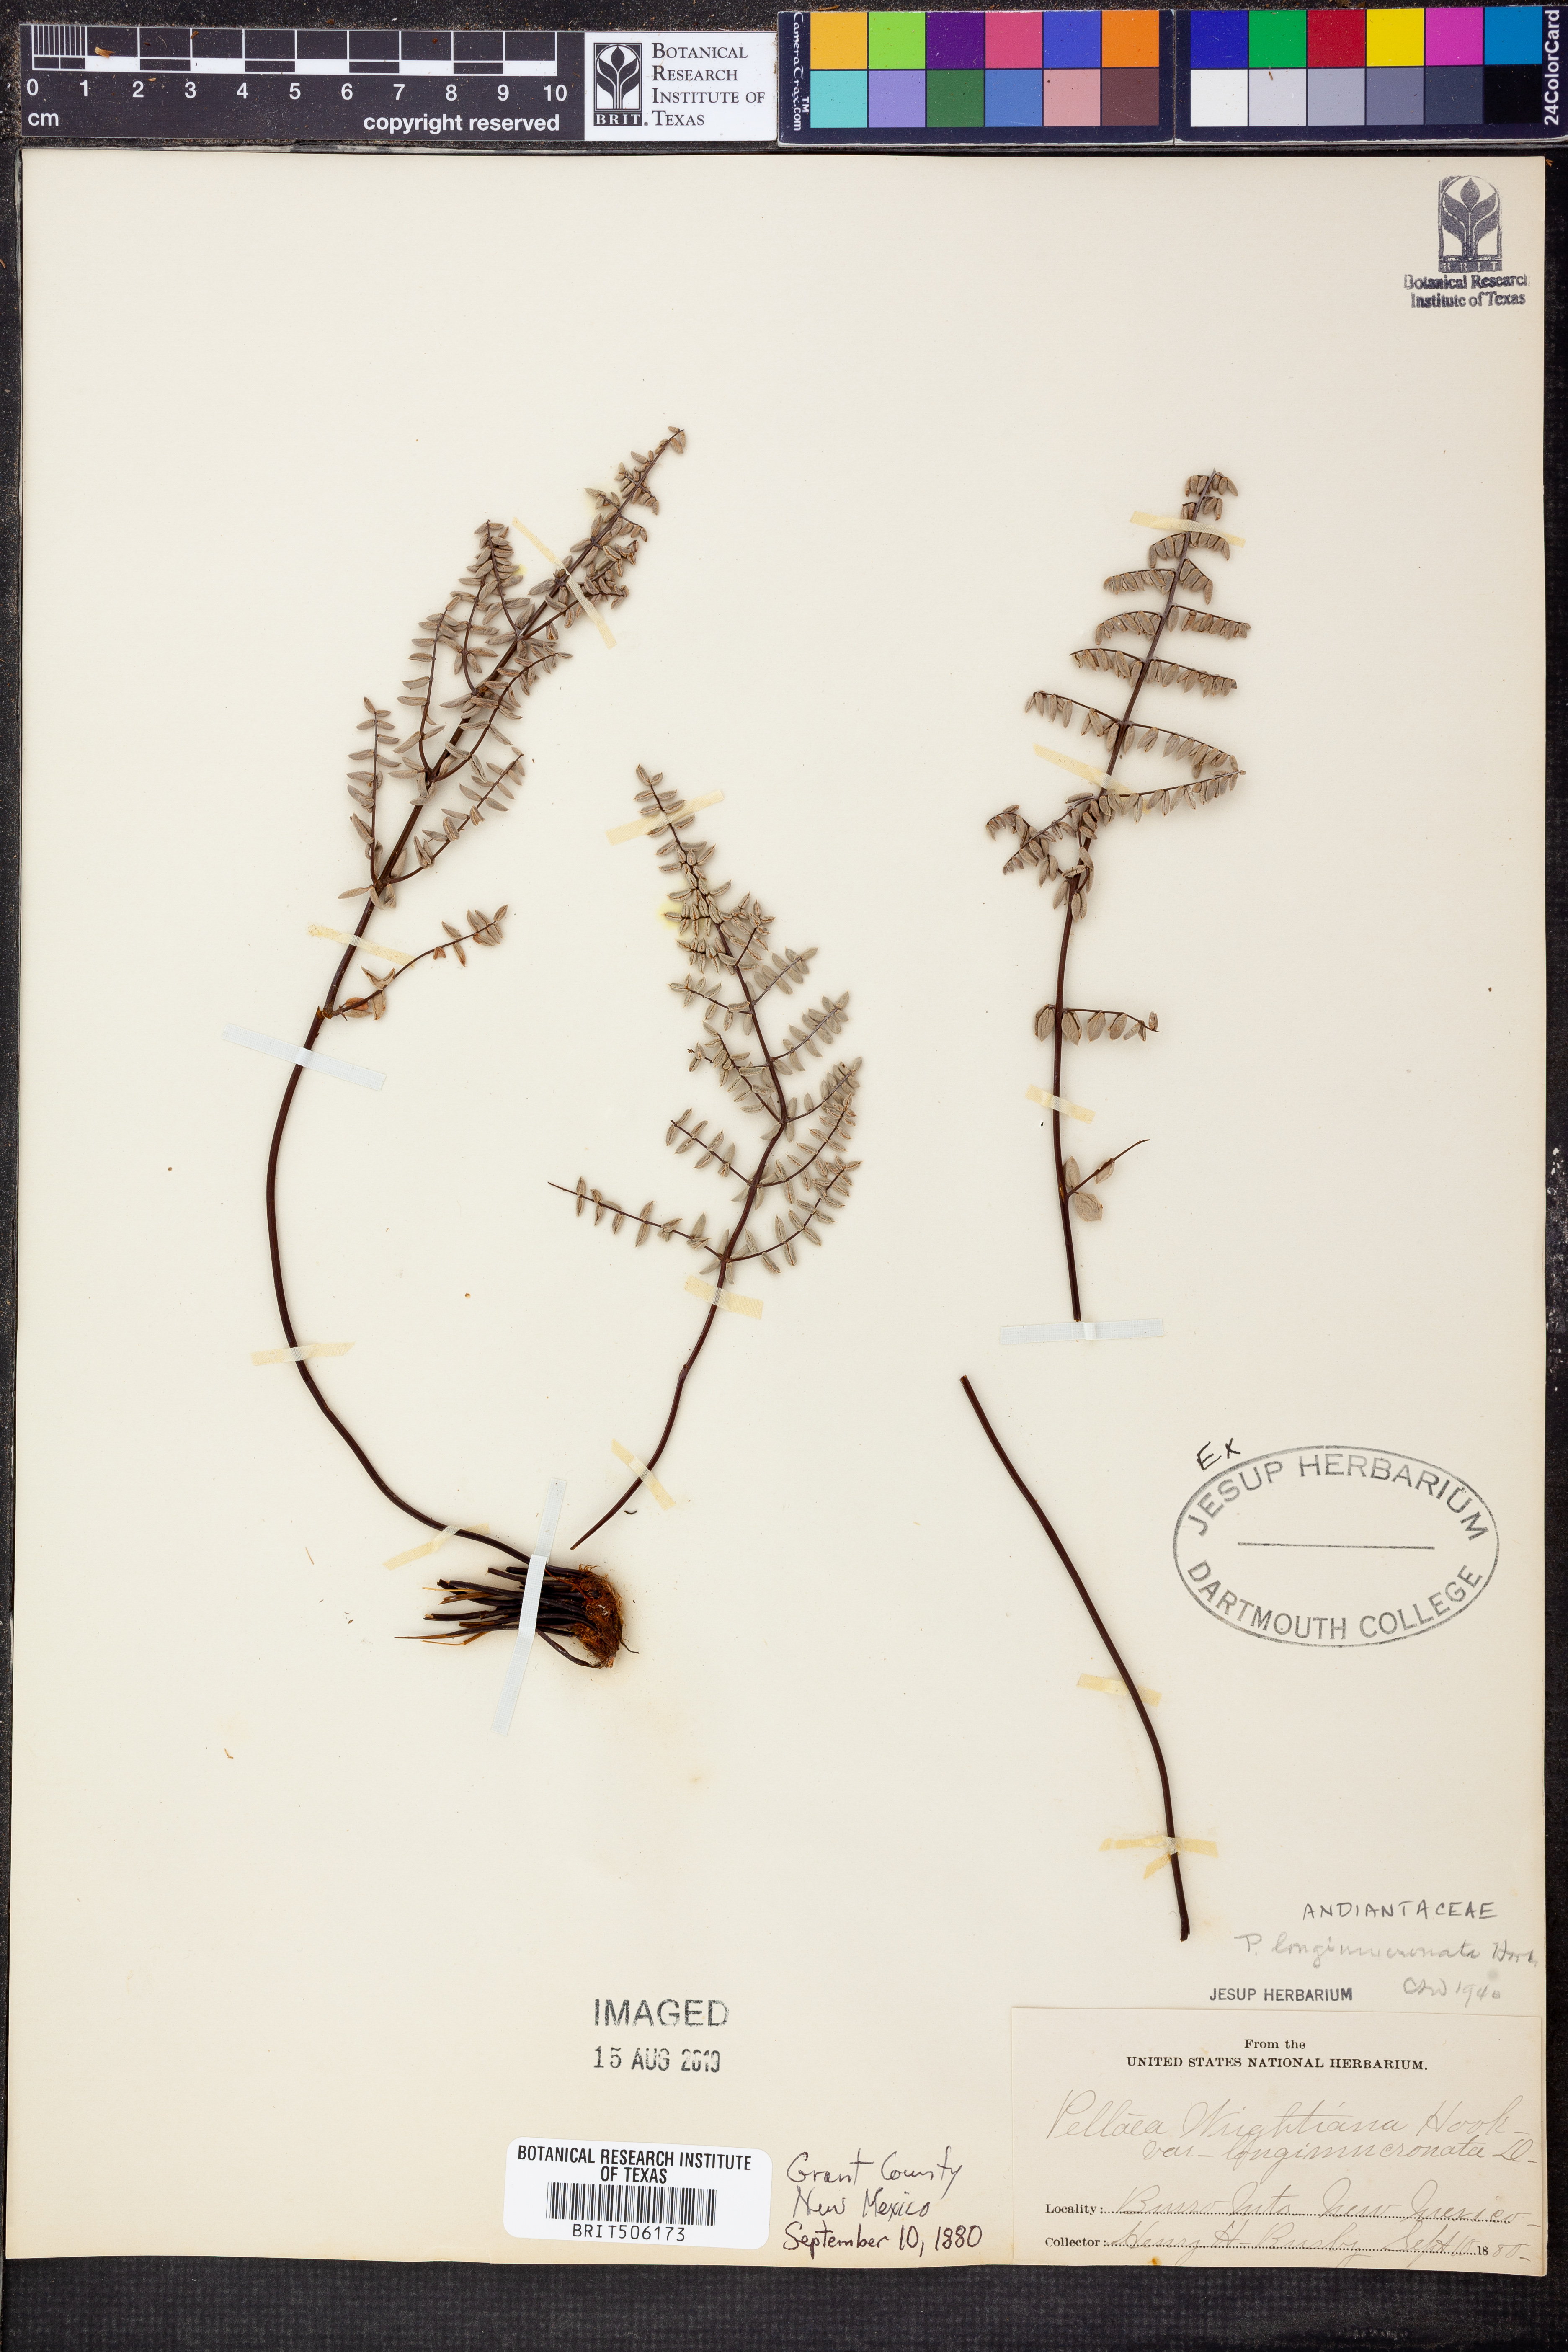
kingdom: Plantae
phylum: Tracheophyta
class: Polypodiopsida
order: Polypodiales
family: Pteridaceae
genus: Pellaea
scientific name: Pellaea mucronata
